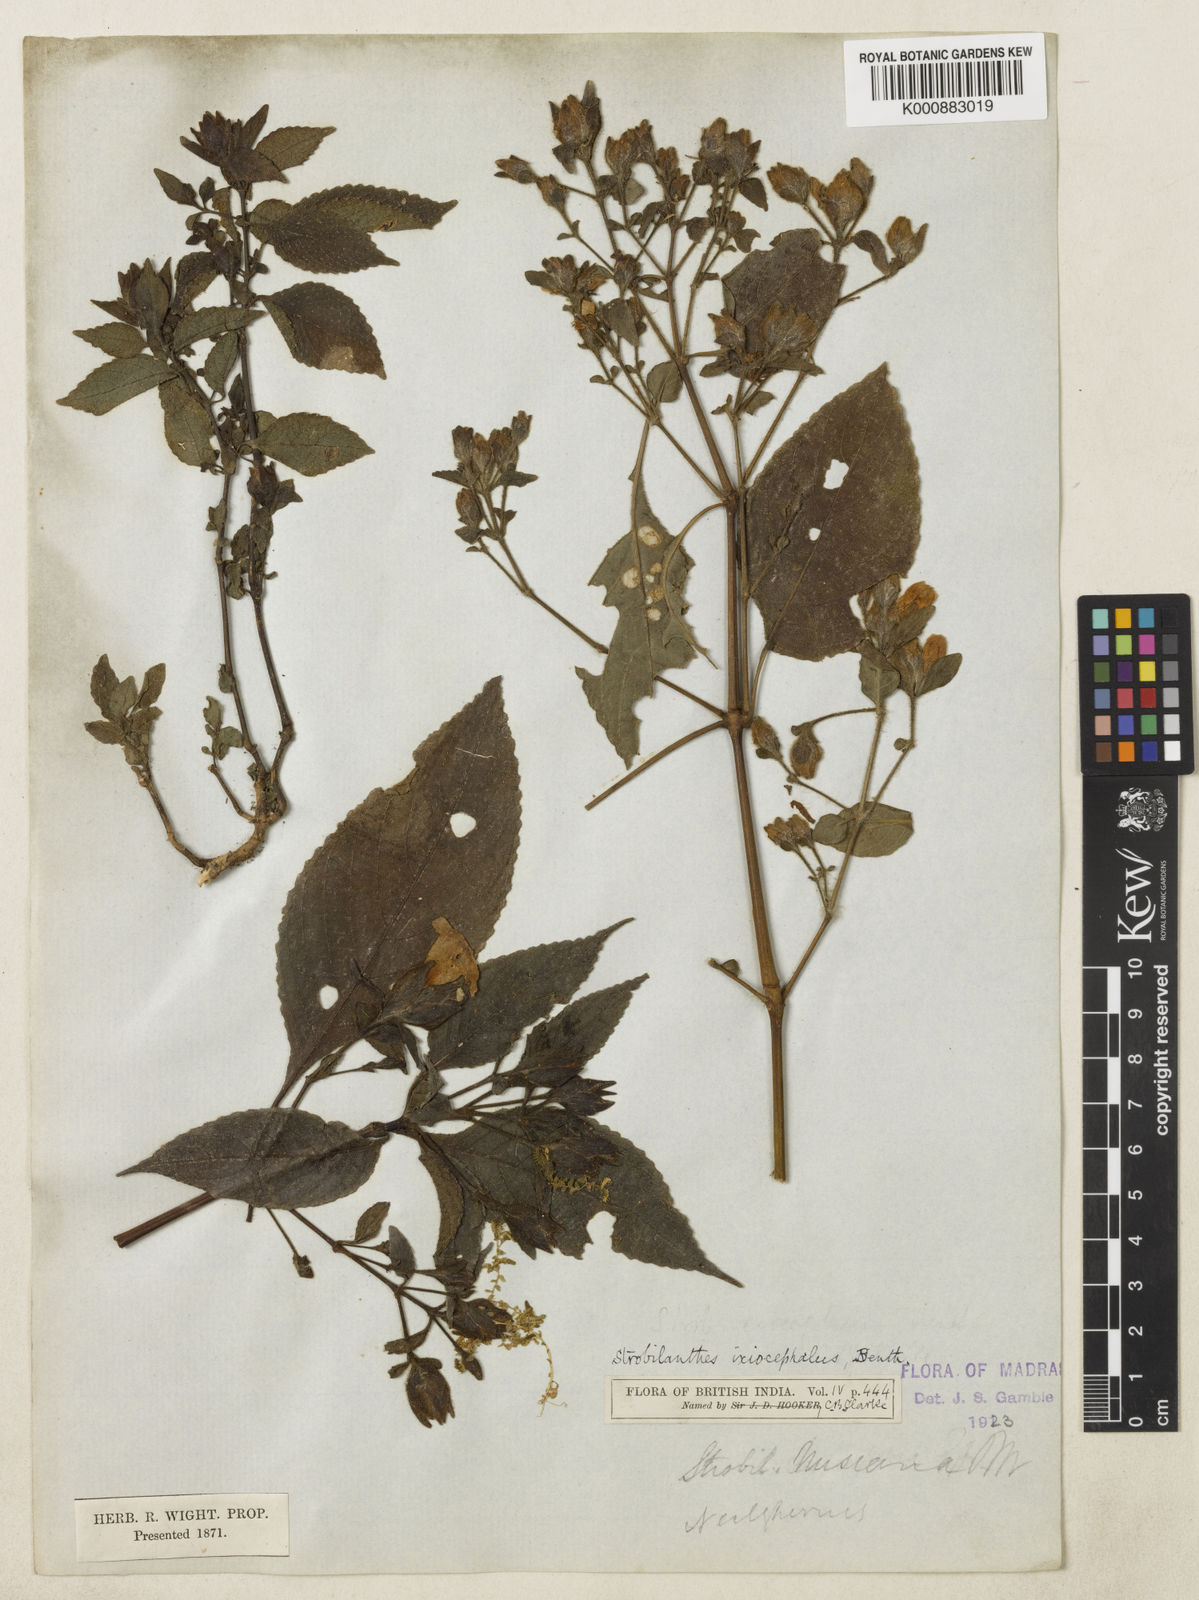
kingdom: Plantae
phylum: Tracheophyta
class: Magnoliopsida
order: Lamiales
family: Acanthaceae
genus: Strobilanthes
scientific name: Strobilanthes ixiocephala
